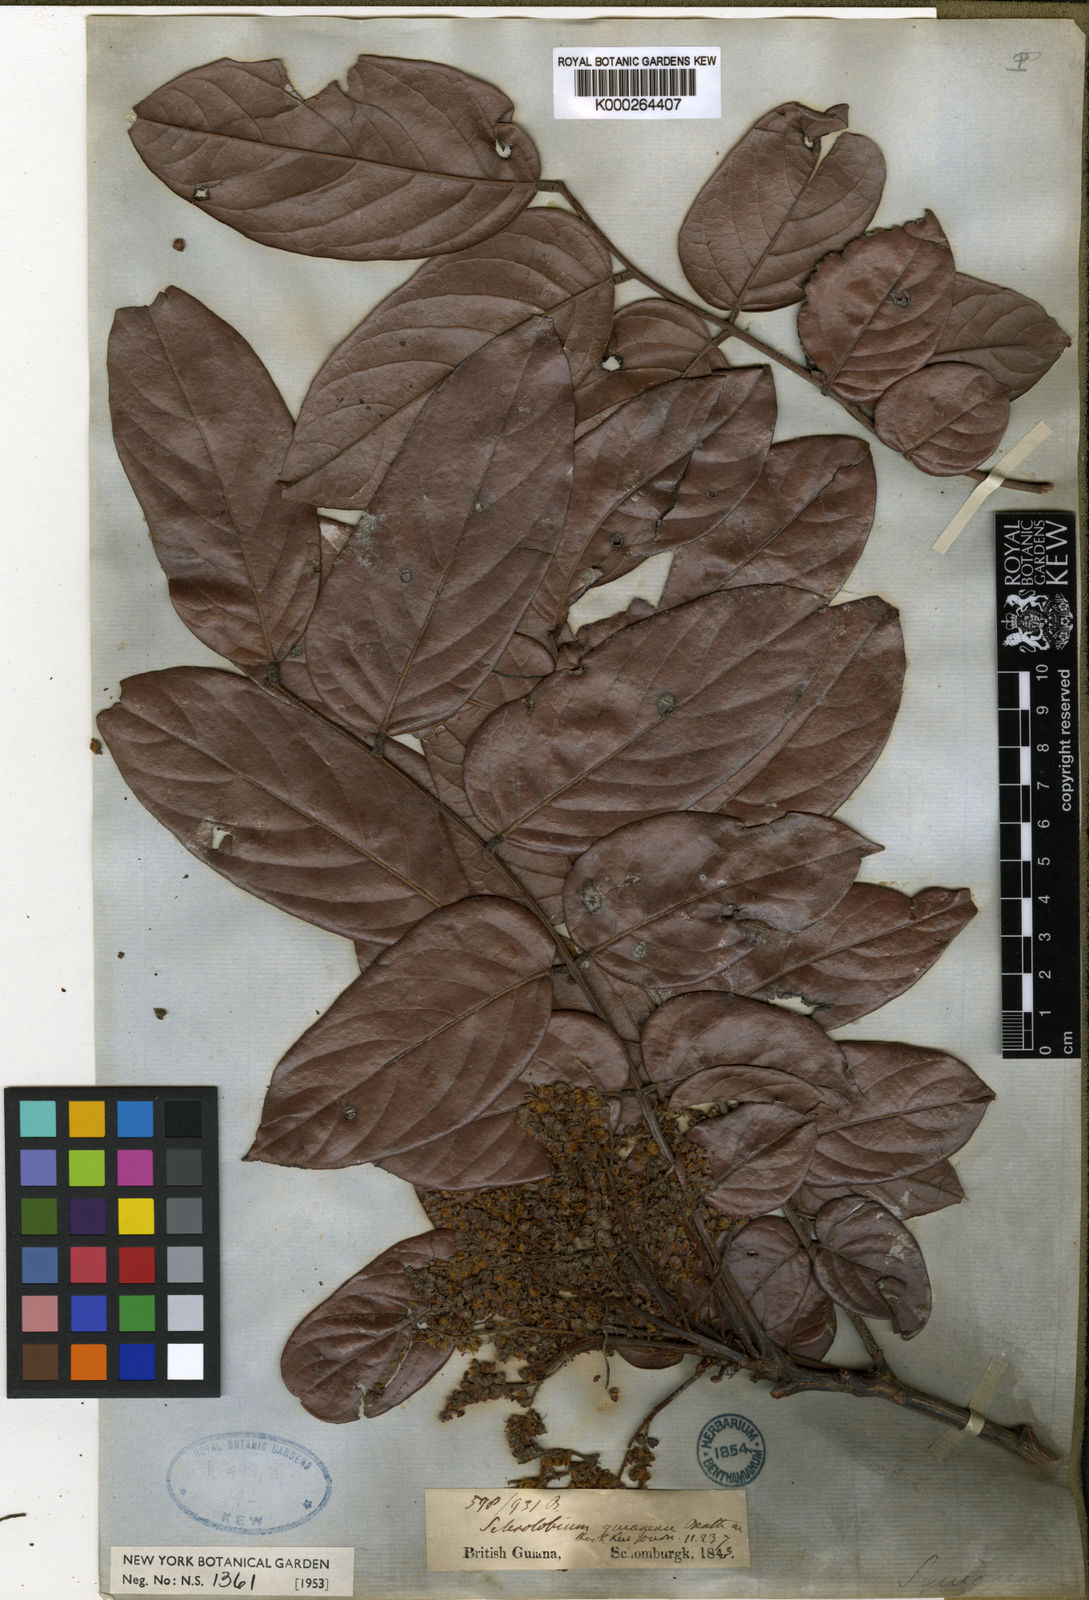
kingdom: Plantae
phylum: Tracheophyta
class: Magnoliopsida
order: Fabales
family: Fabaceae
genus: Tachigali
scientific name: Tachigali guianensis
